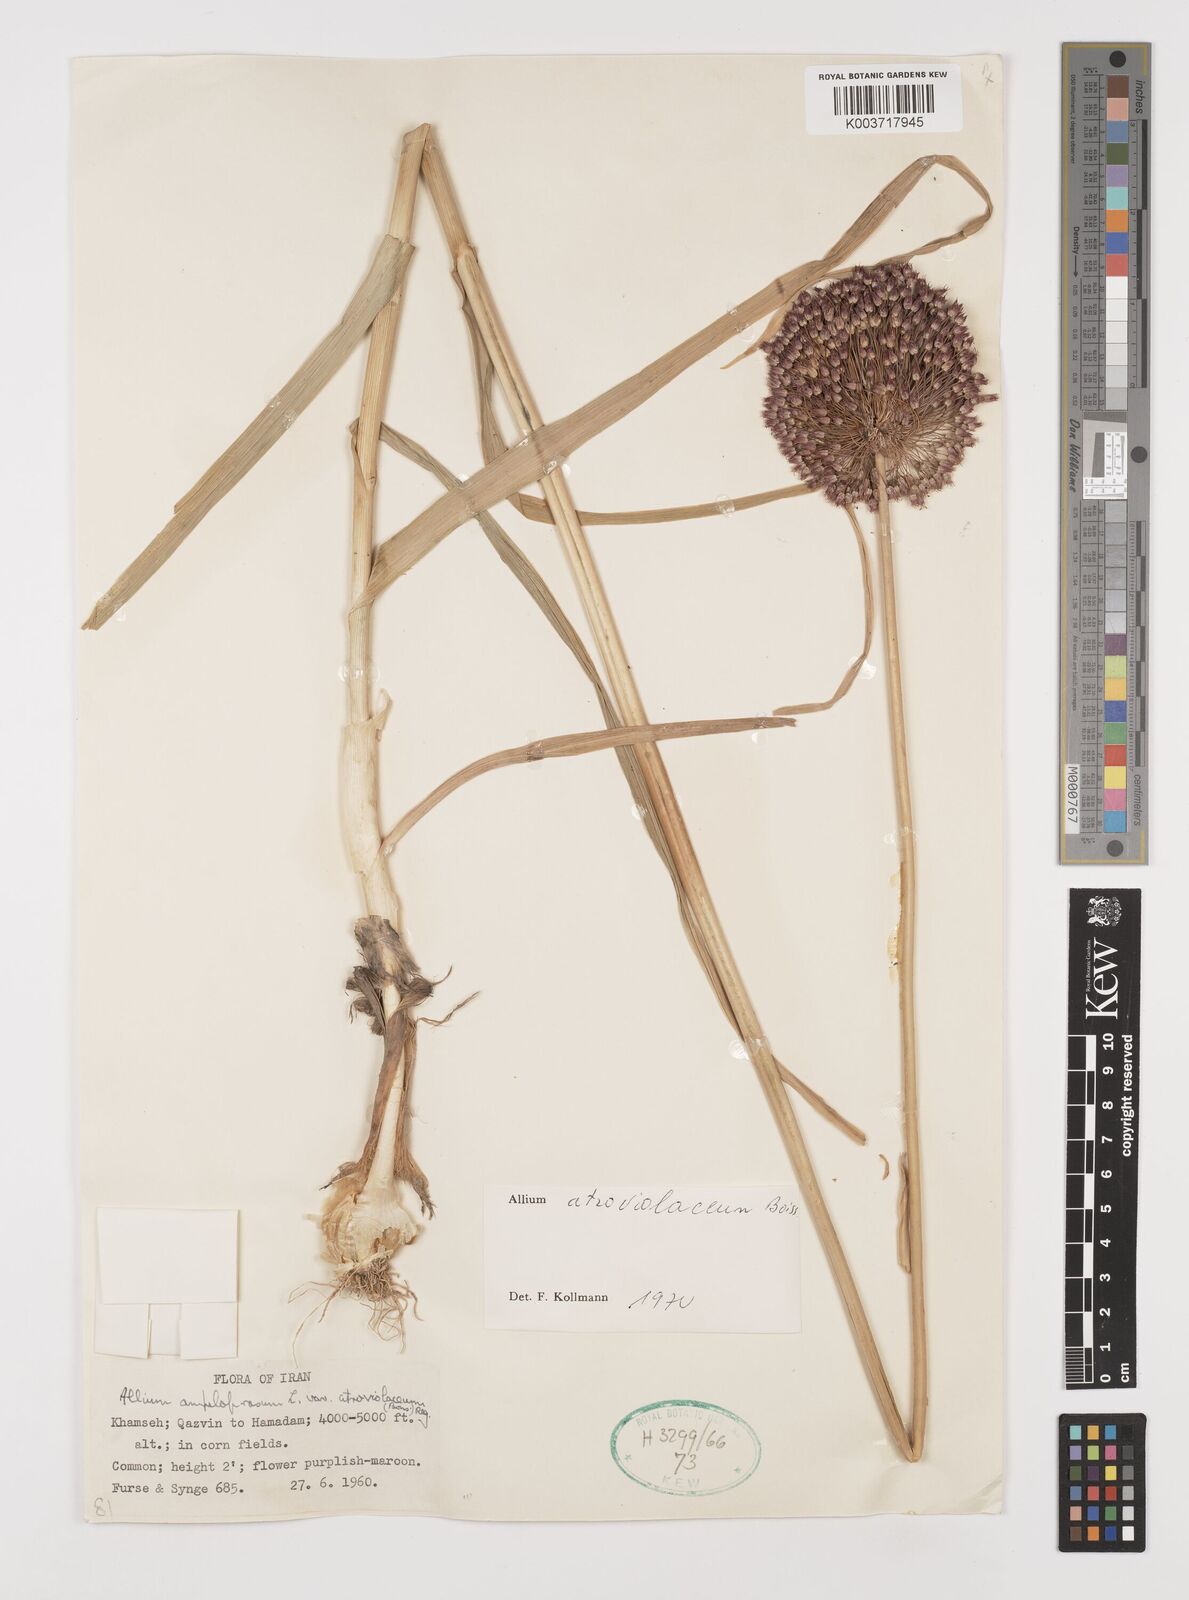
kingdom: Plantae
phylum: Tracheophyta
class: Liliopsida
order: Asparagales
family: Amaryllidaceae
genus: Allium
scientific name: Allium atroviolaceum
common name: Broadleaf wild leek
